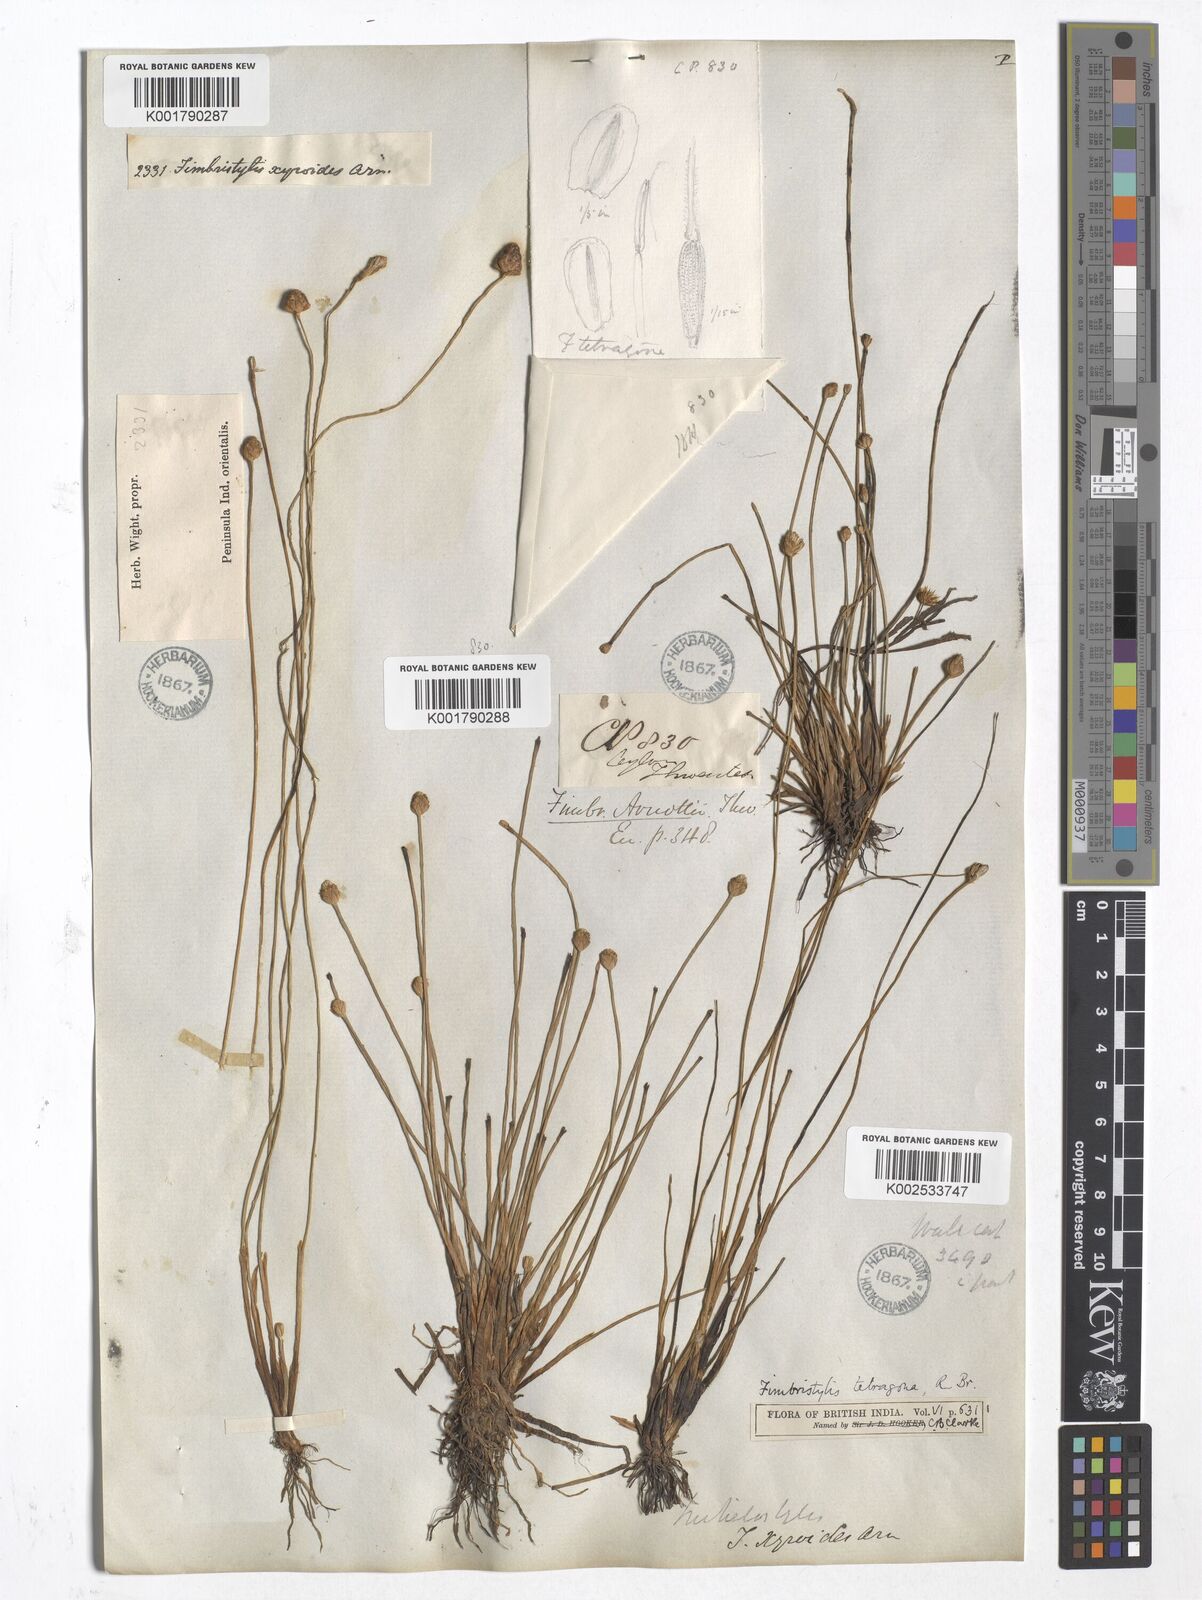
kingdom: Plantae
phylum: Tracheophyta
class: Liliopsida
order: Poales
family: Cyperaceae
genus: Fimbristylis
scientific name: Fimbristylis tetragona
